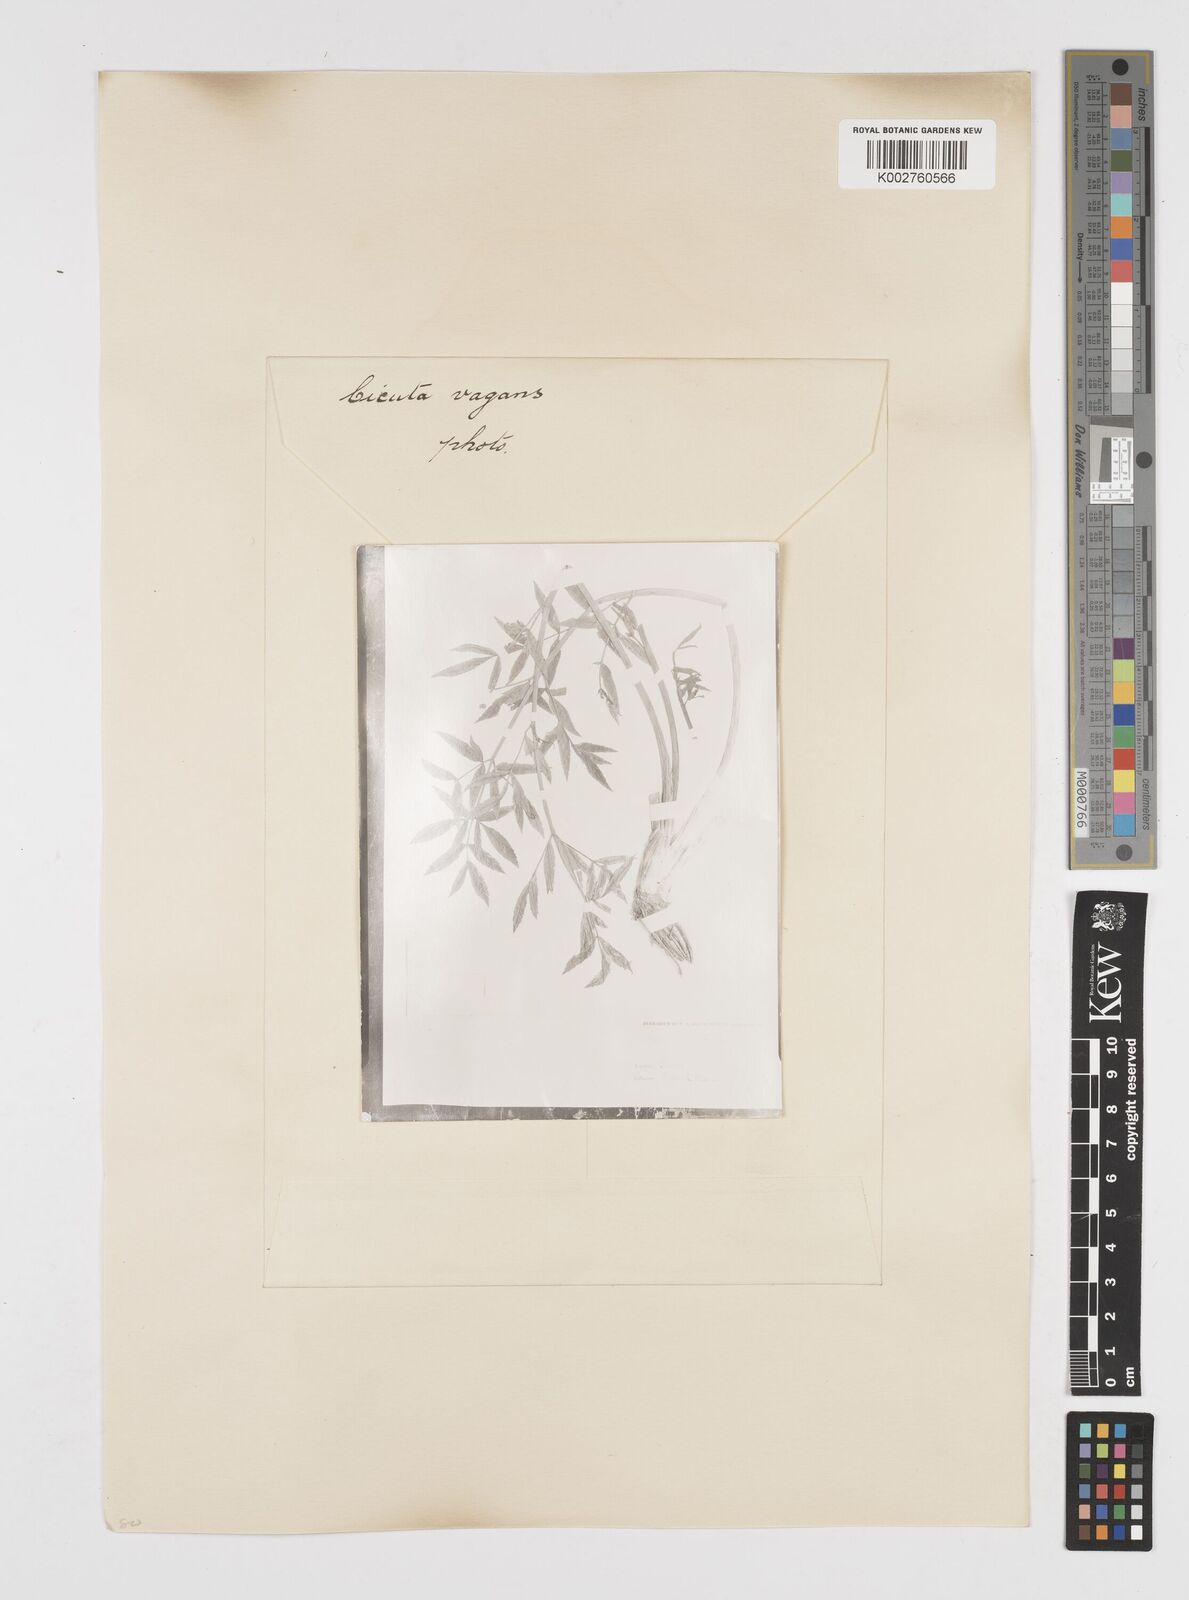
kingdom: Plantae
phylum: Tracheophyta
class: Magnoliopsida
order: Apiales
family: Apiaceae
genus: Cicuta
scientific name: Cicuta douglasii
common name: Western water-hemlock
